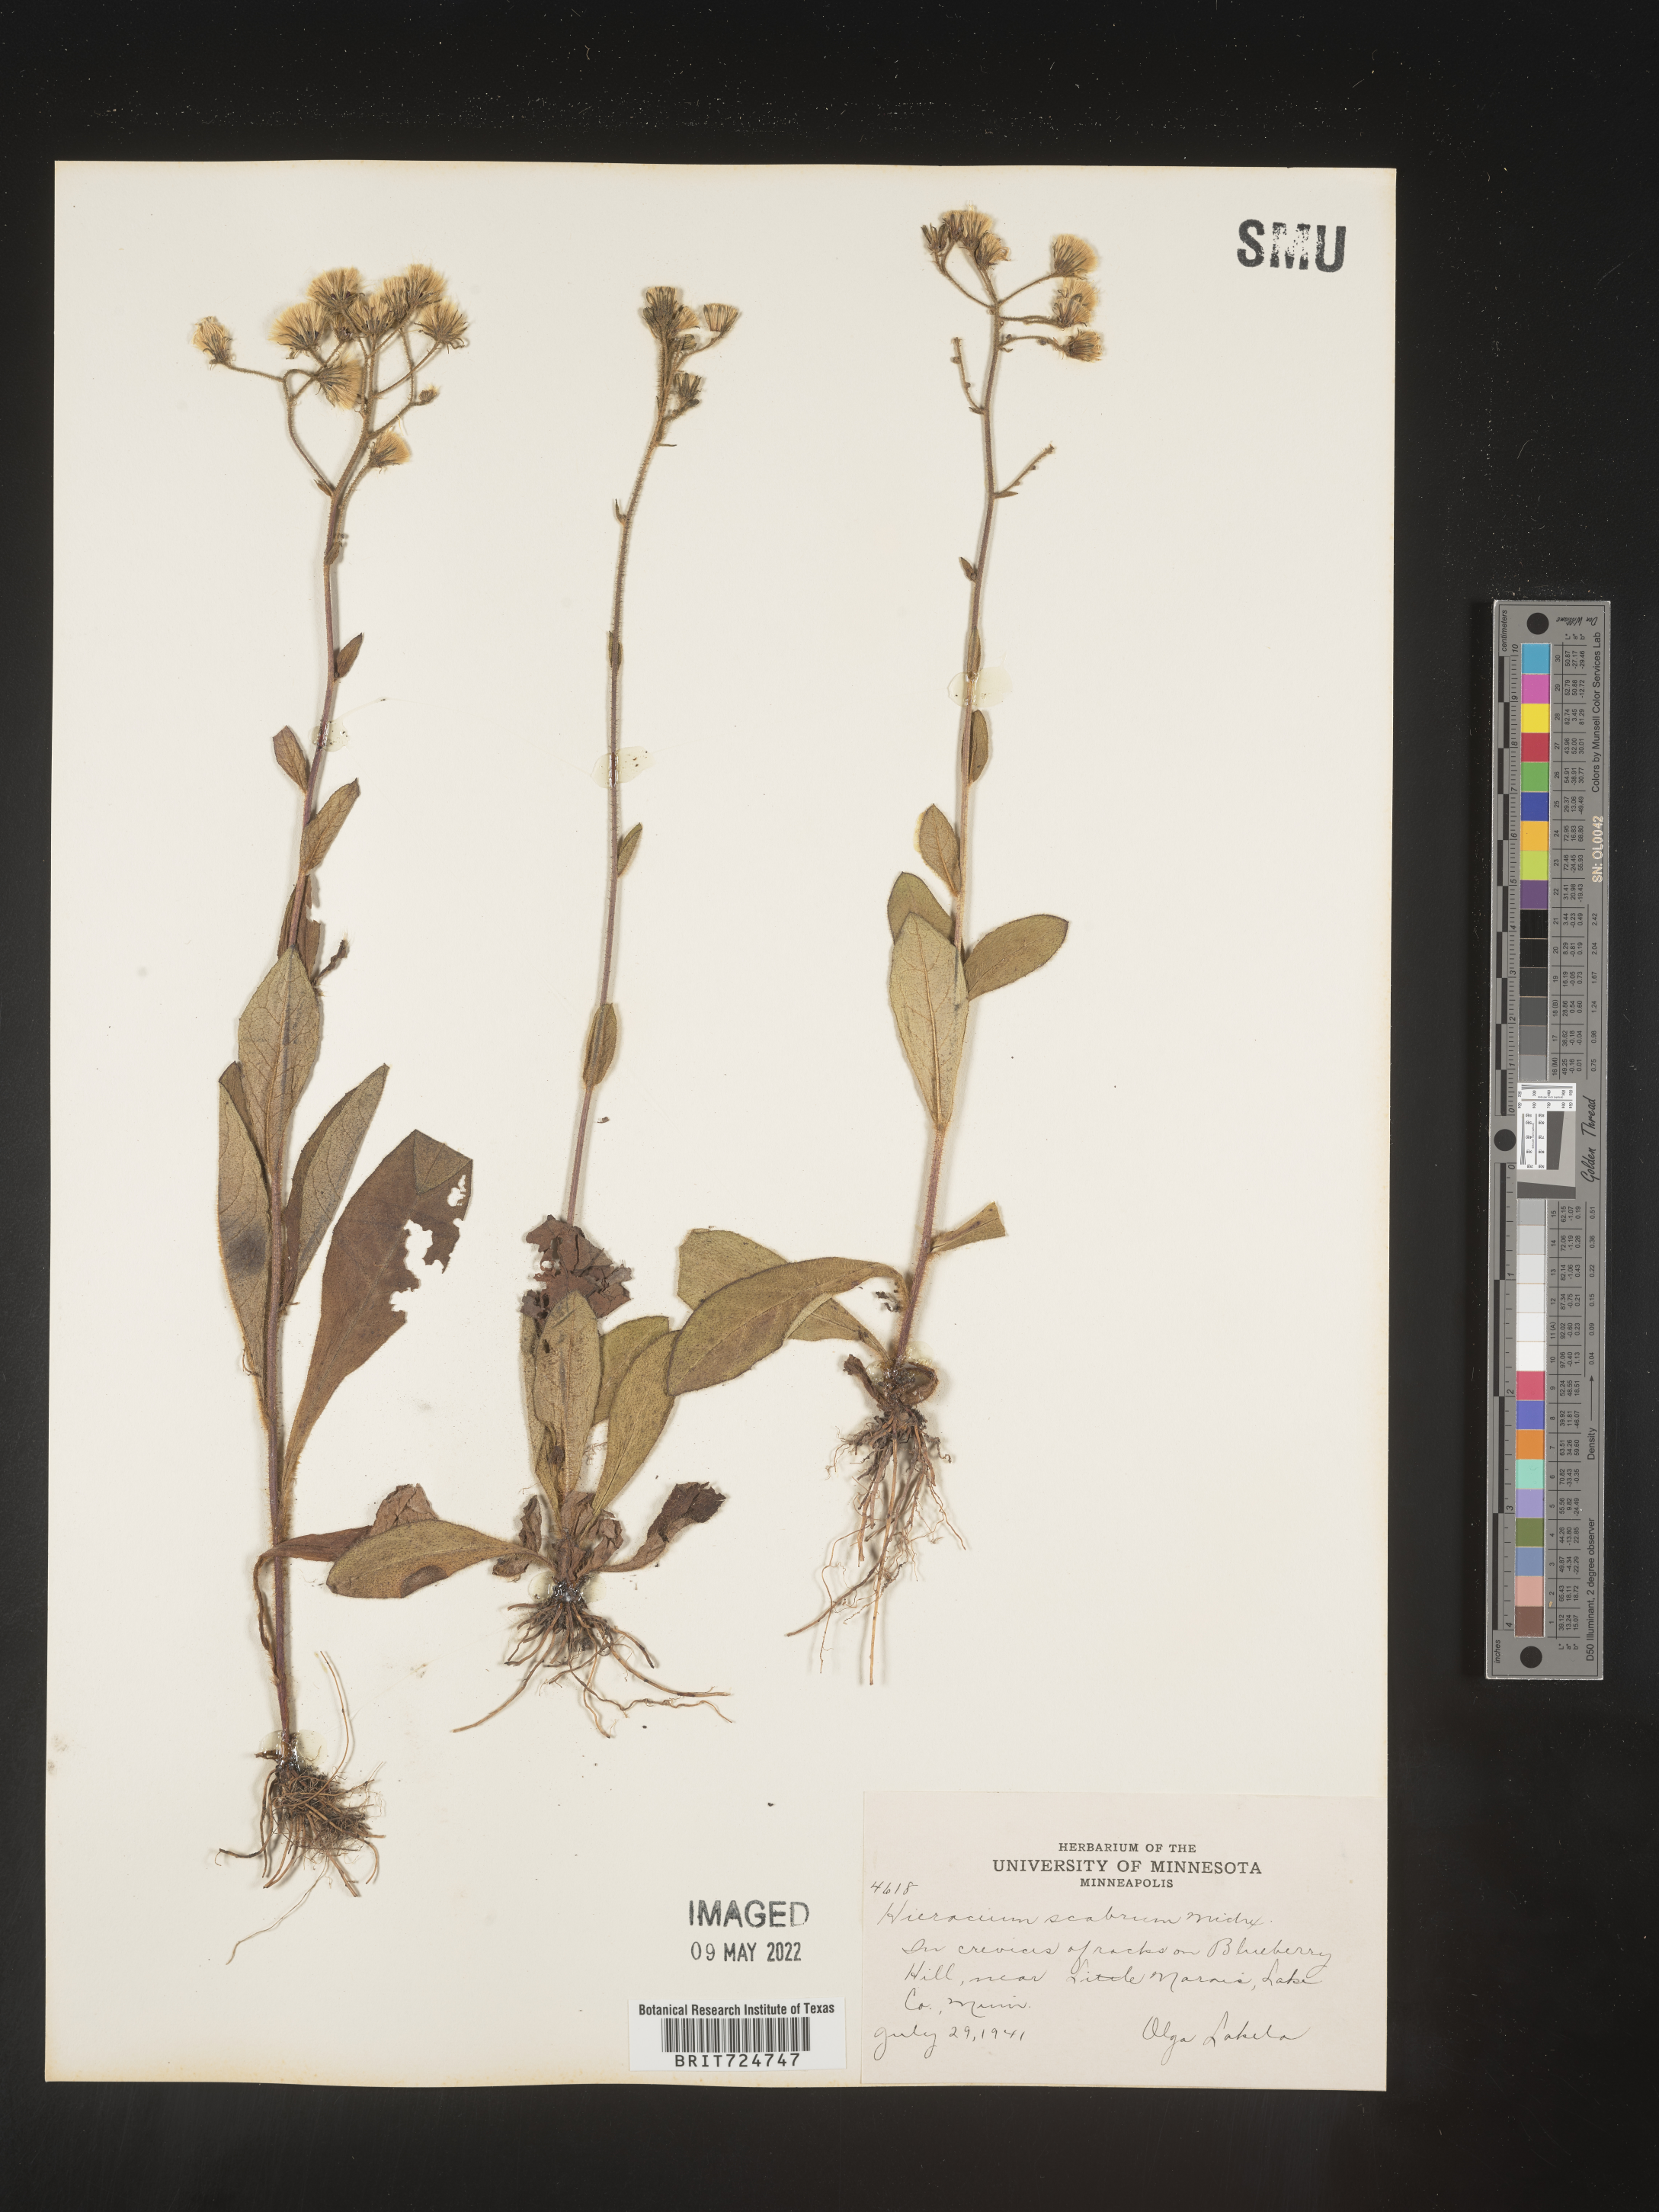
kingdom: Plantae
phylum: Tracheophyta
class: Magnoliopsida
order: Asterales
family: Asteraceae
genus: Hieracium
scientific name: Hieracium scabrum
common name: Rough hawkweed
